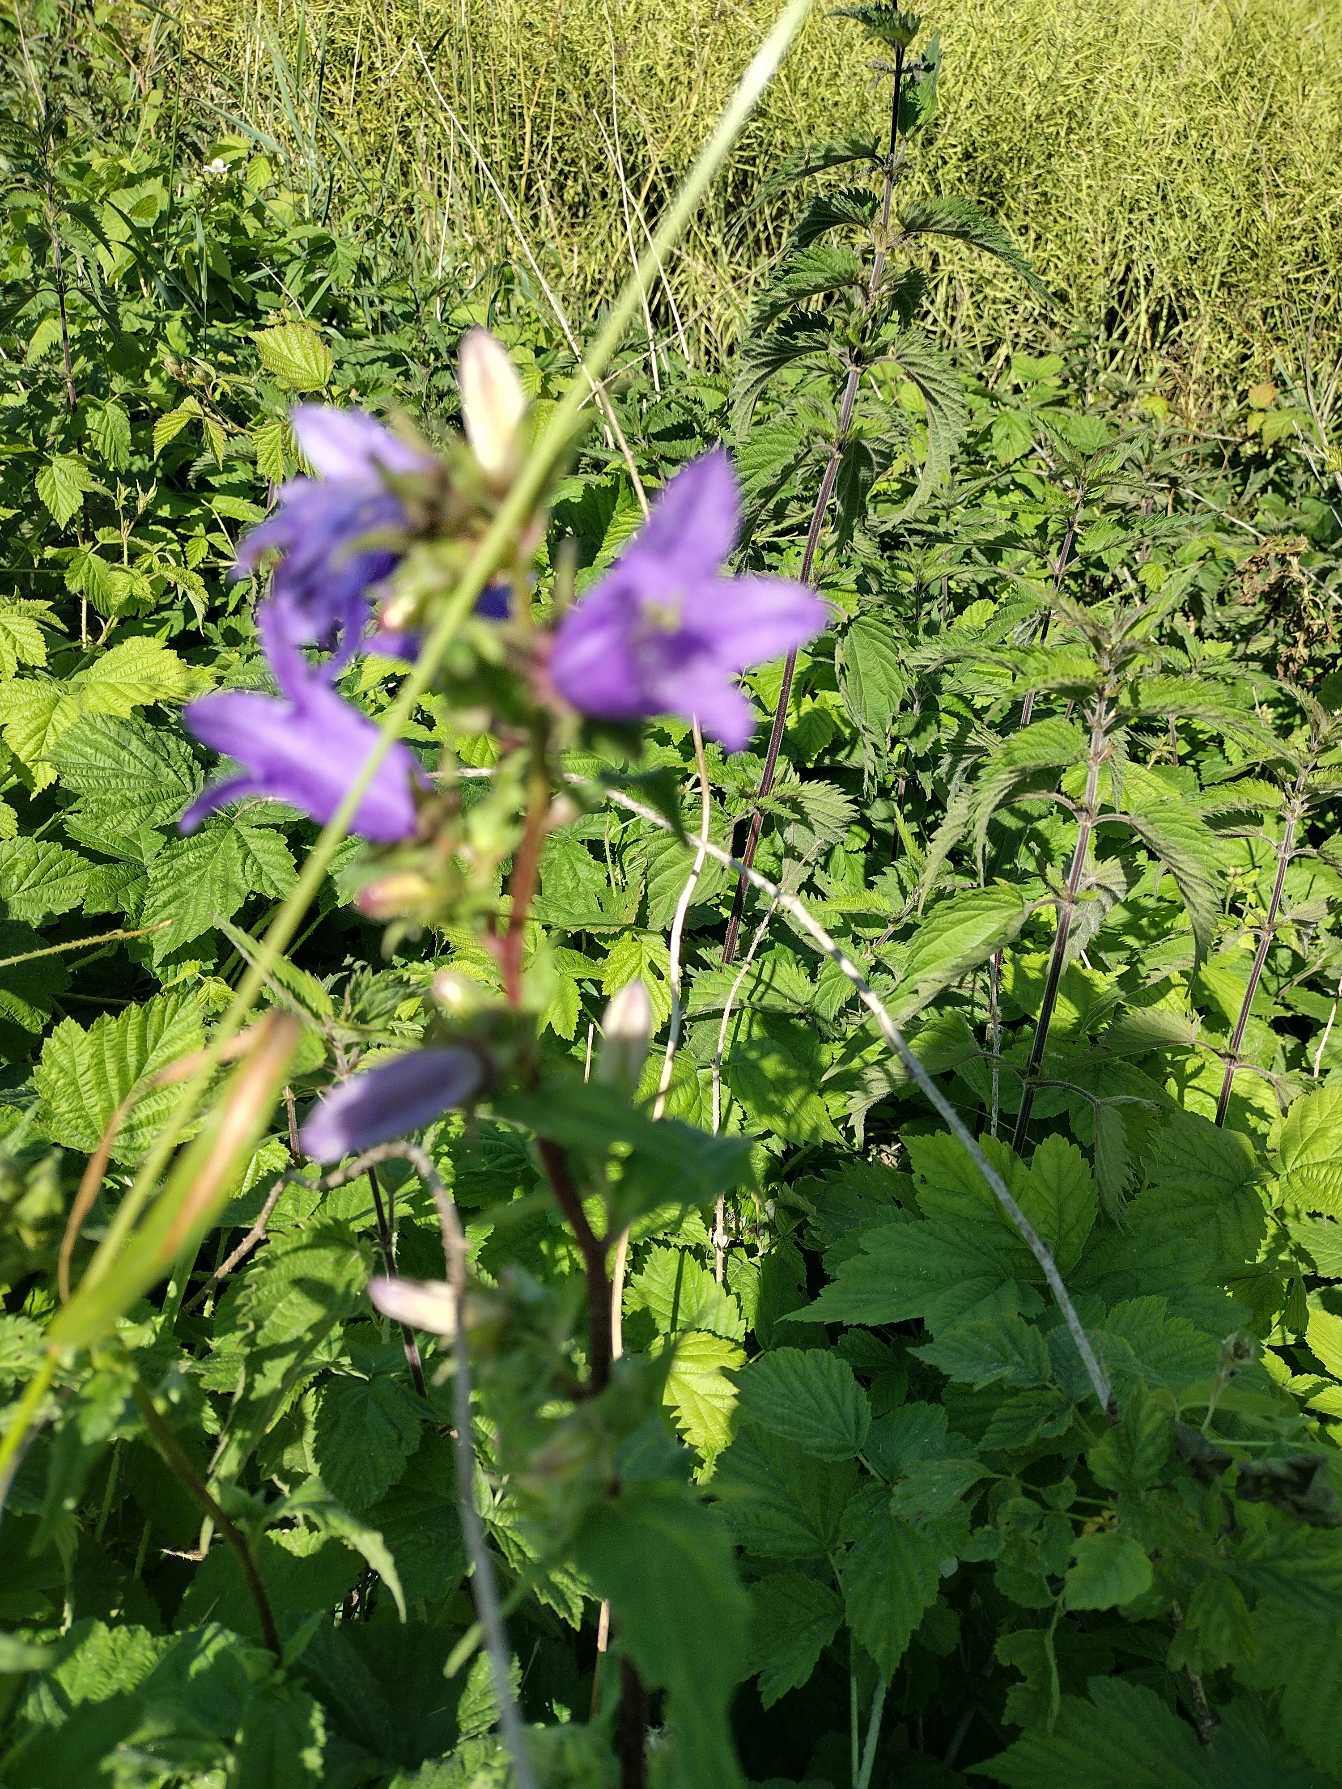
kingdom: Plantae
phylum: Tracheophyta
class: Magnoliopsida
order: Asterales
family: Campanulaceae
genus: Campanula
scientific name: Campanula trachelium
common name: Nælde-klokke
